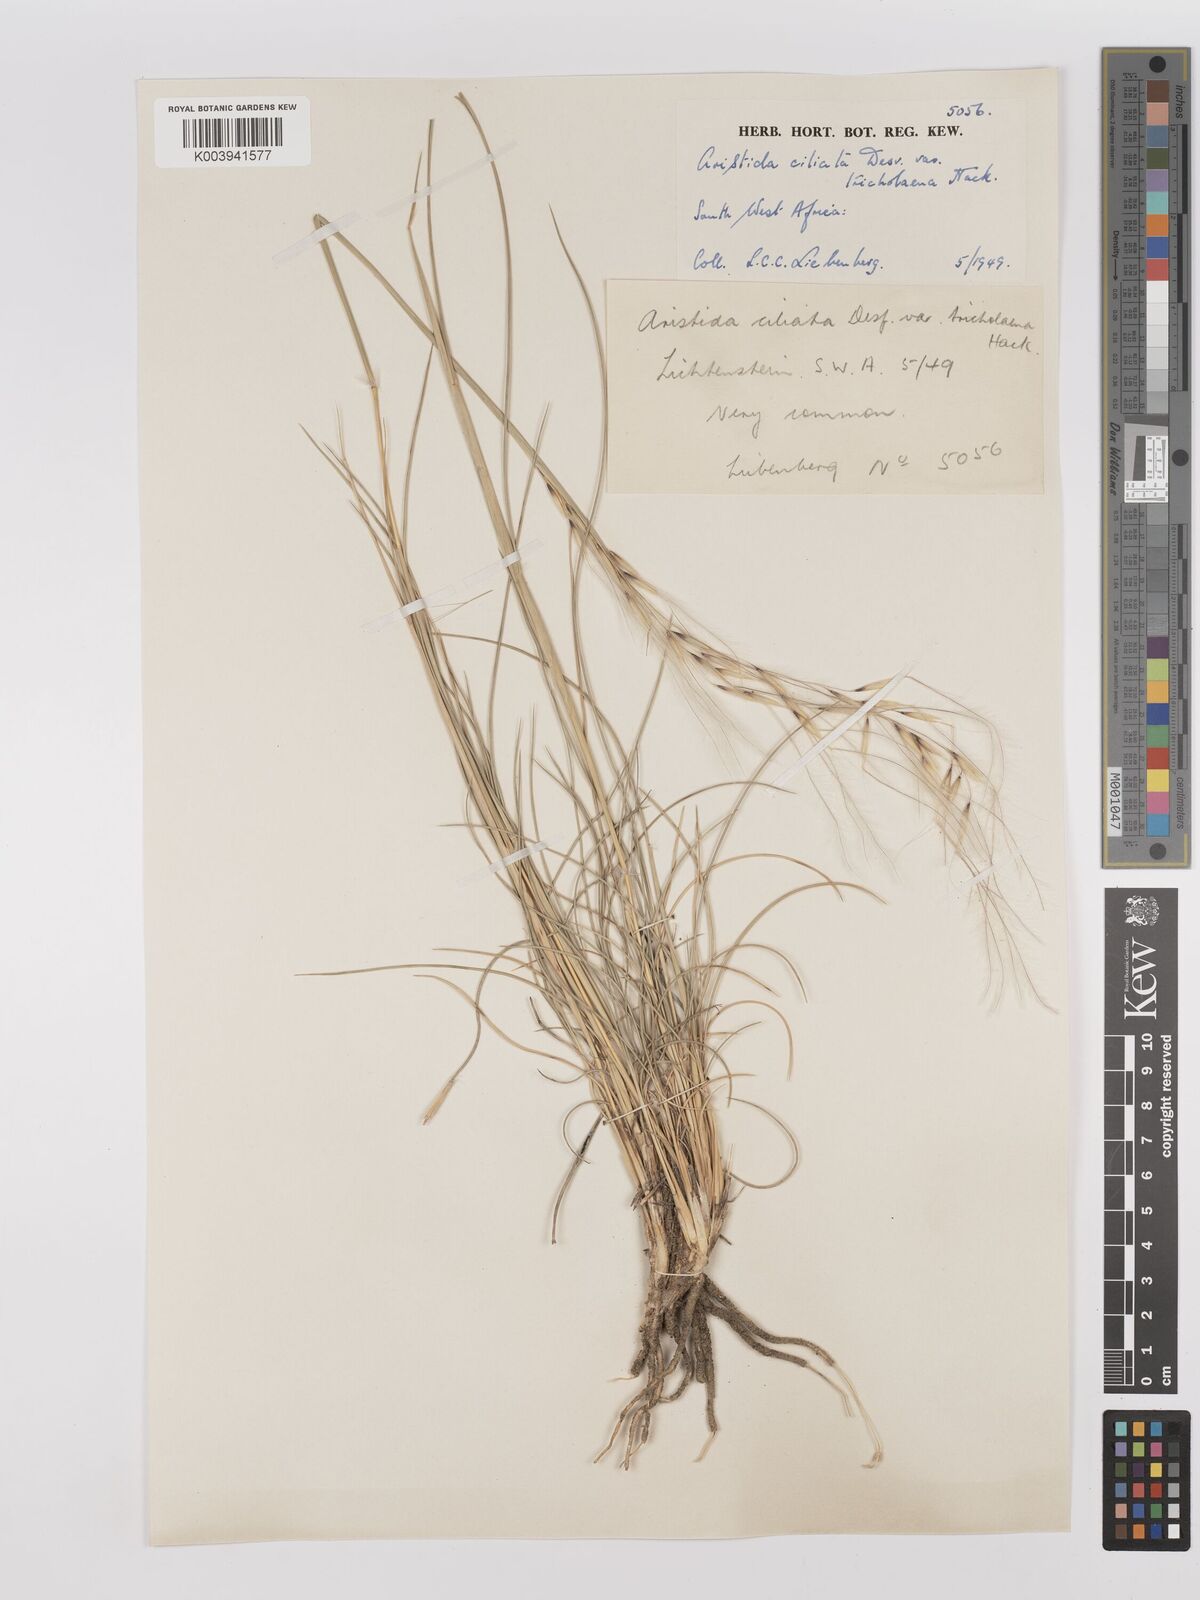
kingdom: Plantae
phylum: Tracheophyta
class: Liliopsida
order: Poales
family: Poaceae
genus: Stipagrostis
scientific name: Stipagrostis ciliata
